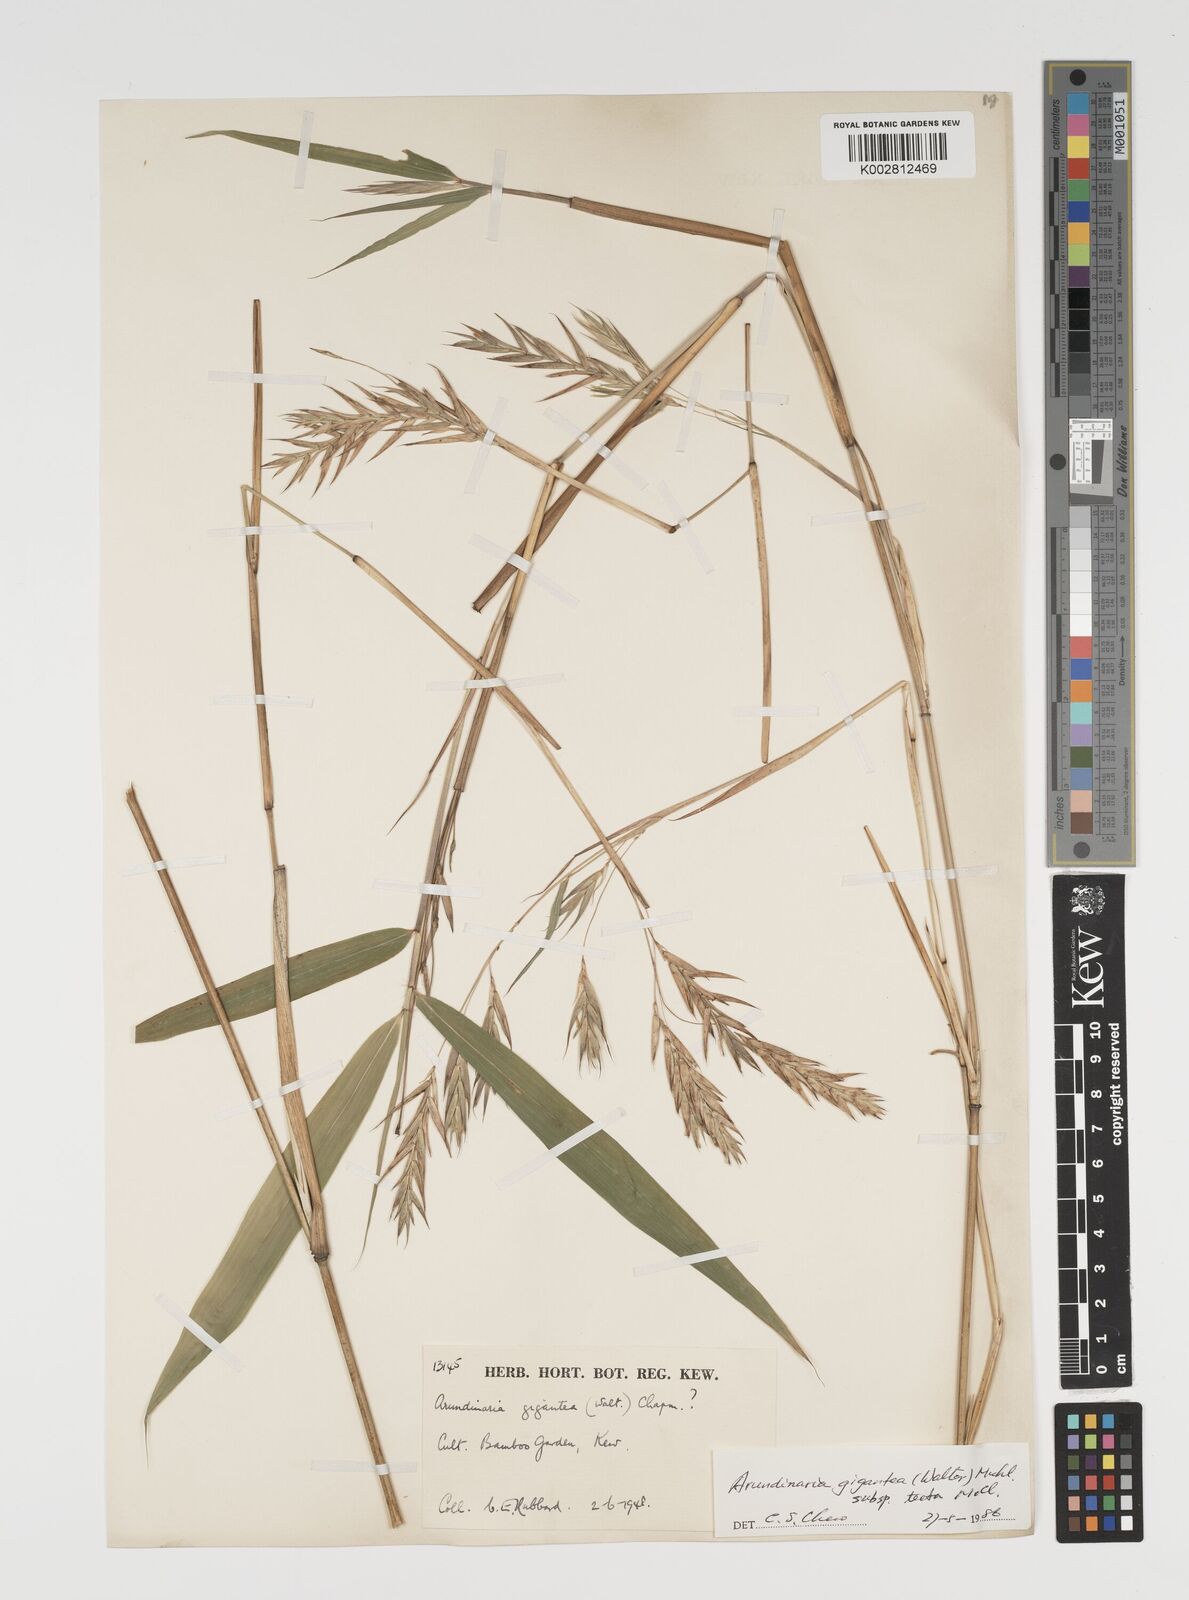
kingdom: Plantae
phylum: Tracheophyta
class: Liliopsida
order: Poales
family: Poaceae
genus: Arundinaria
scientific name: Arundinaria tecta
